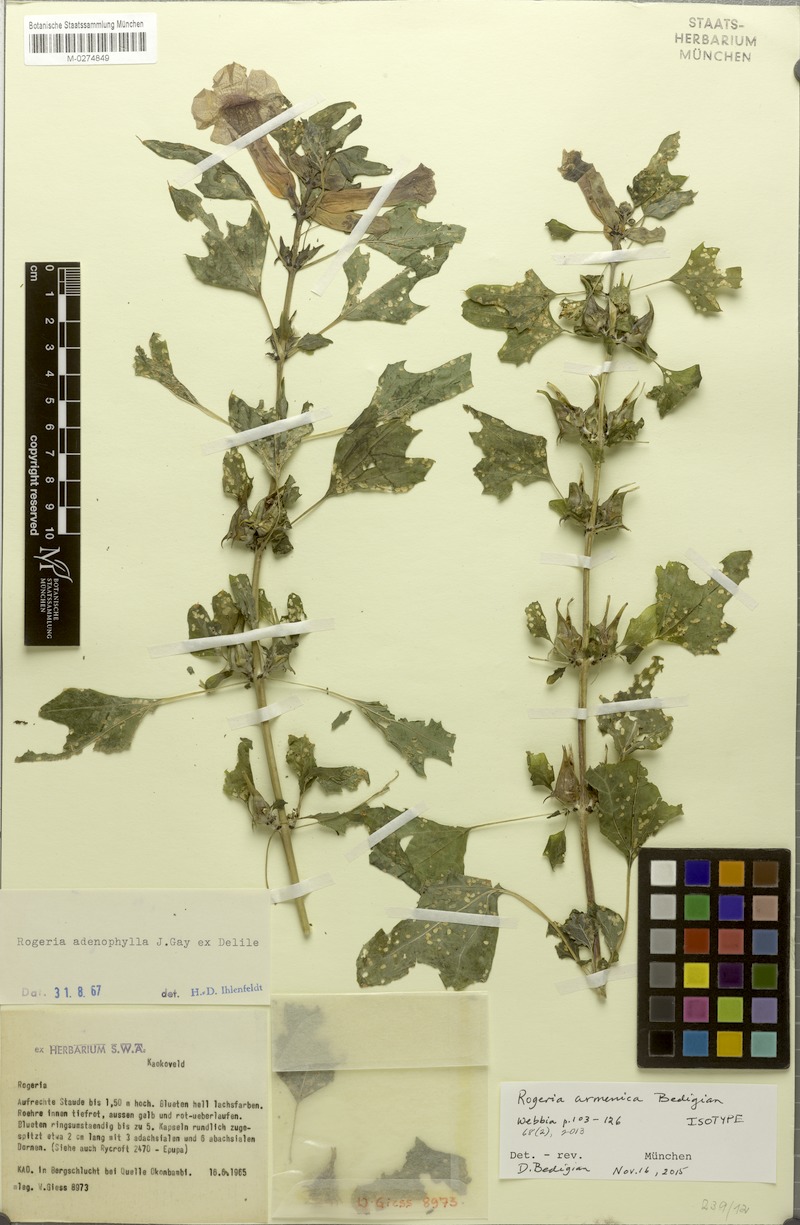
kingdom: Plantae
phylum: Tracheophyta
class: Magnoliopsida
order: Lamiales
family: Pedaliaceae
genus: Rogeria
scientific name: Rogeria adenophylla
